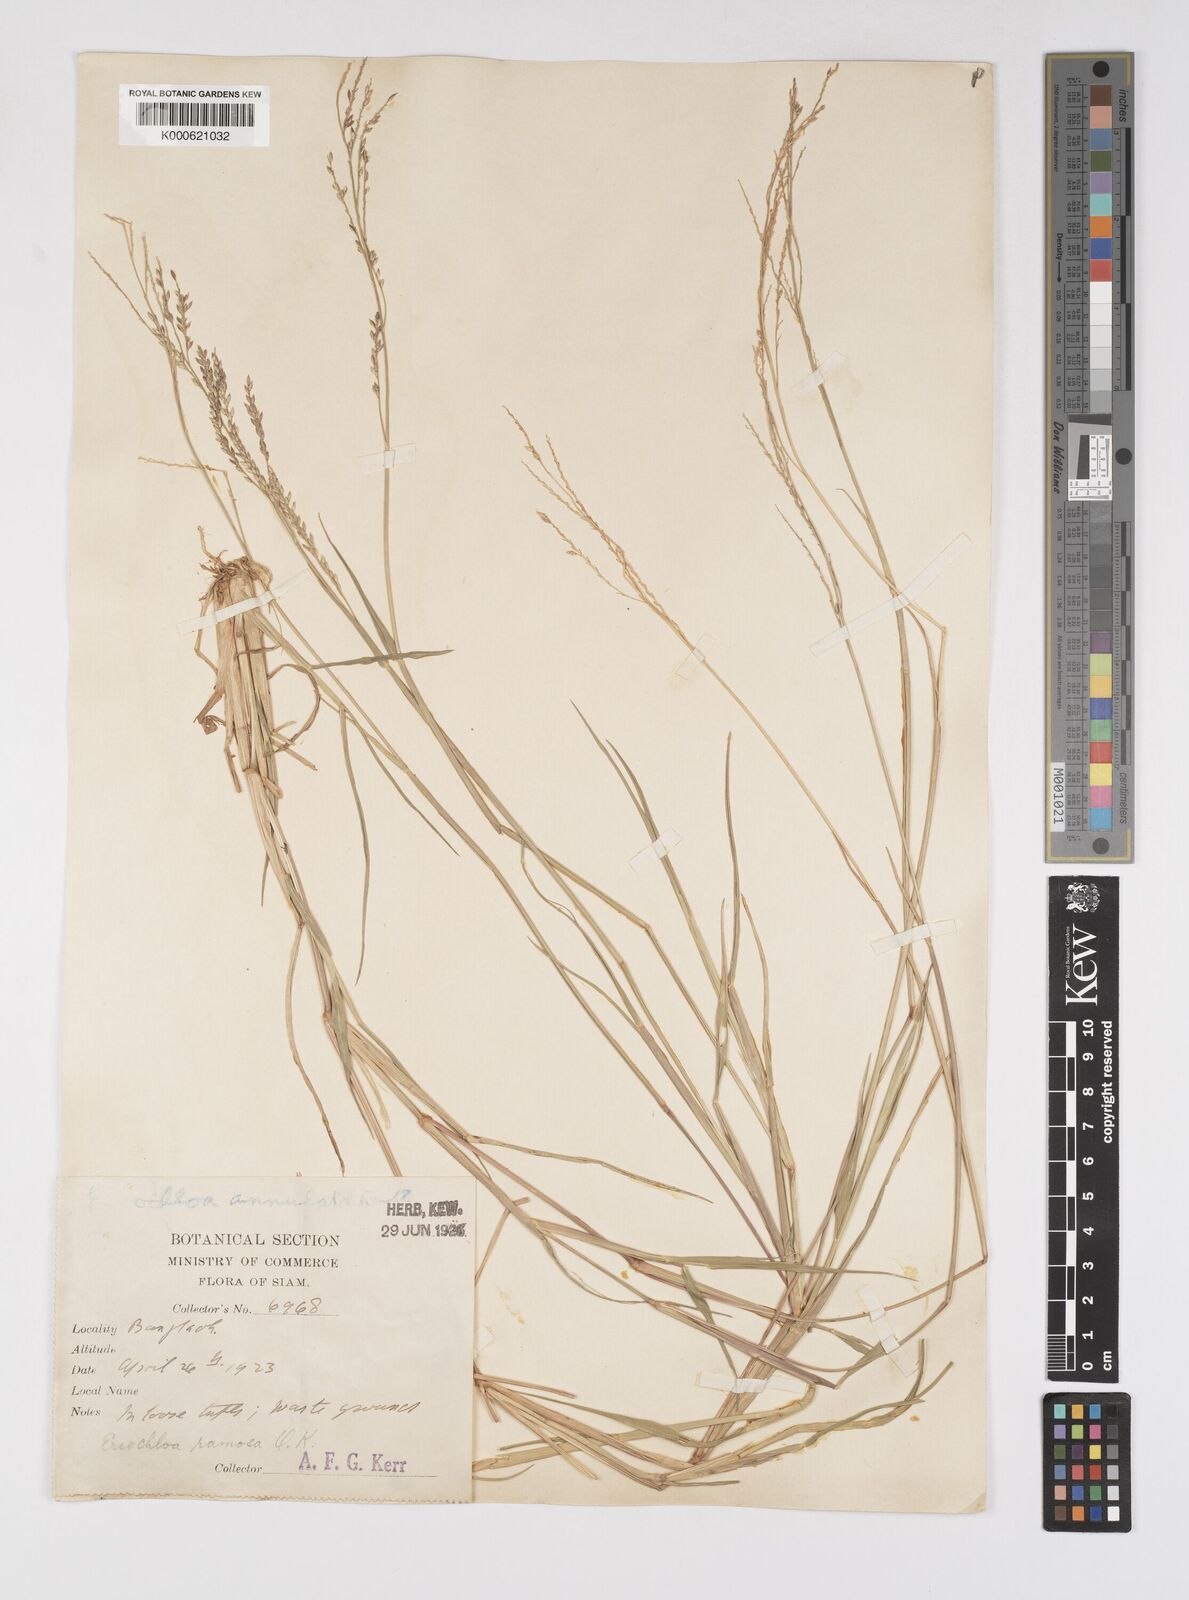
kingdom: Plantae
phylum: Tracheophyta
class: Liliopsida
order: Poales
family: Poaceae
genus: Eriochloa
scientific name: Eriochloa procera
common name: Spring grass
